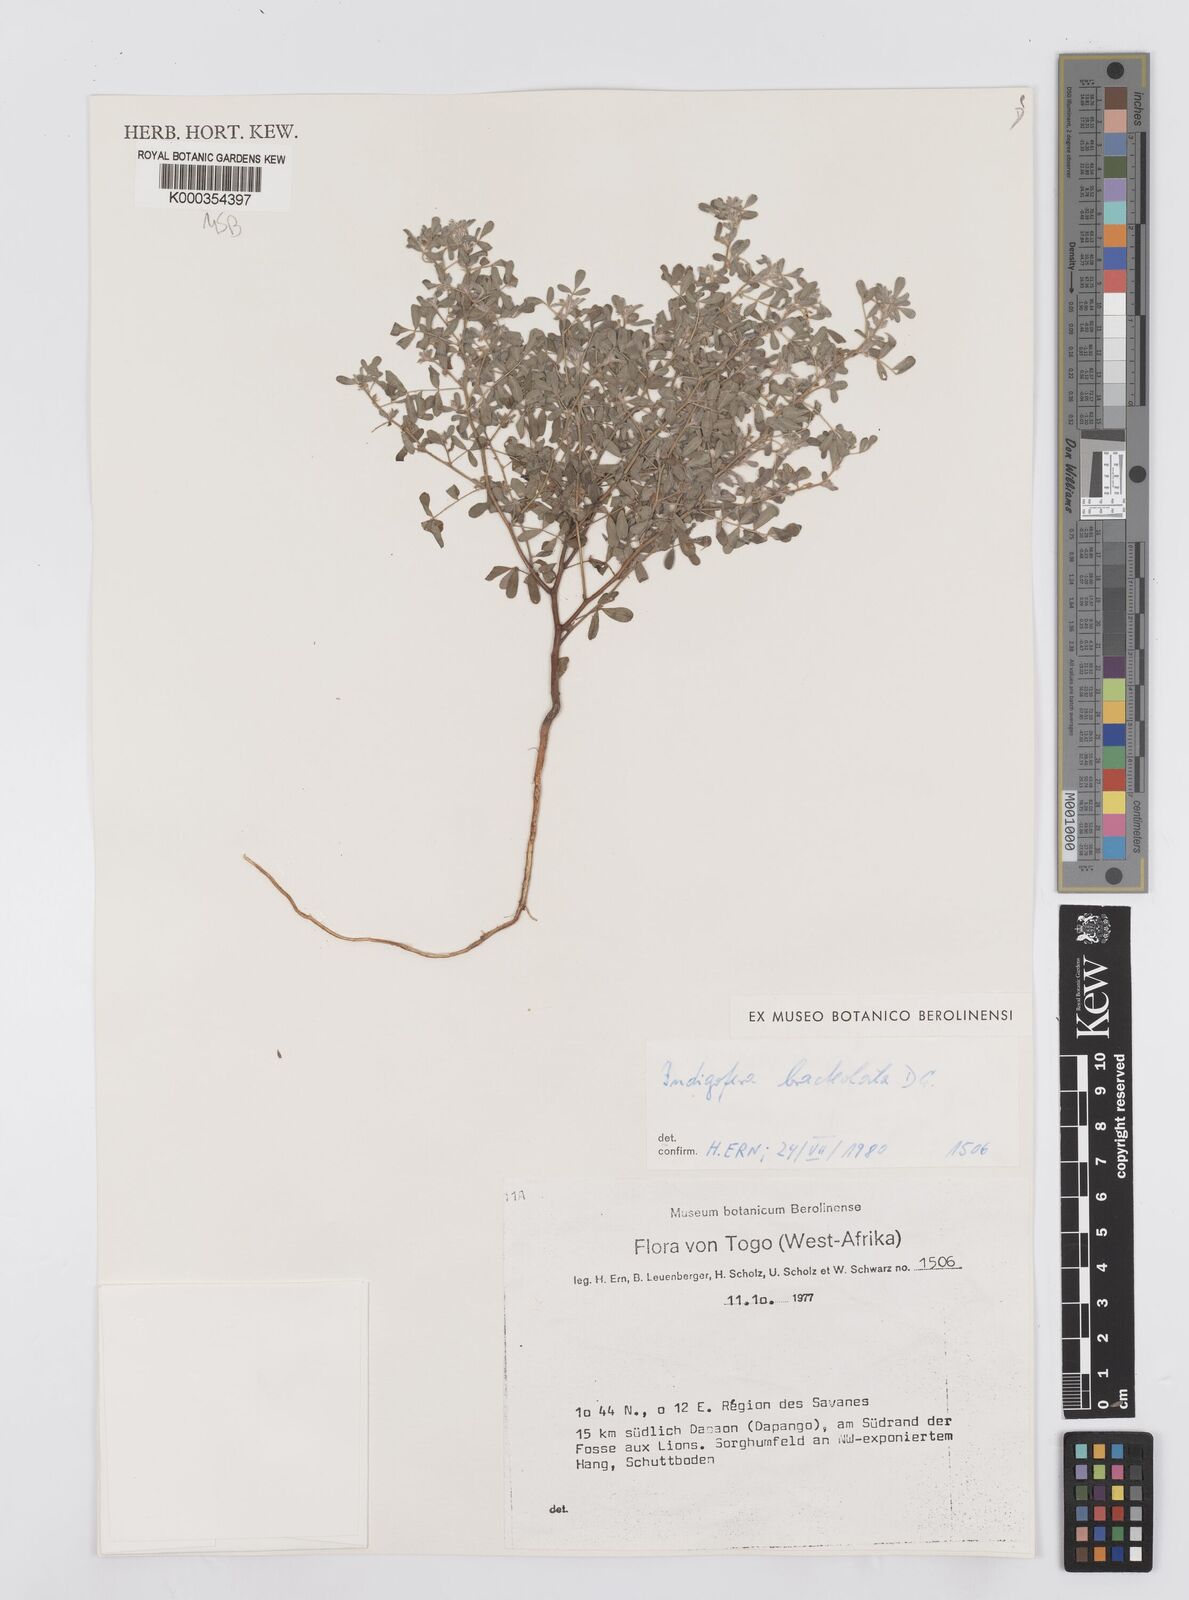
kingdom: Plantae
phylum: Tracheophyta
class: Magnoliopsida
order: Fabales
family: Fabaceae
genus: Indigofera
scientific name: Indigofera bracteolata
